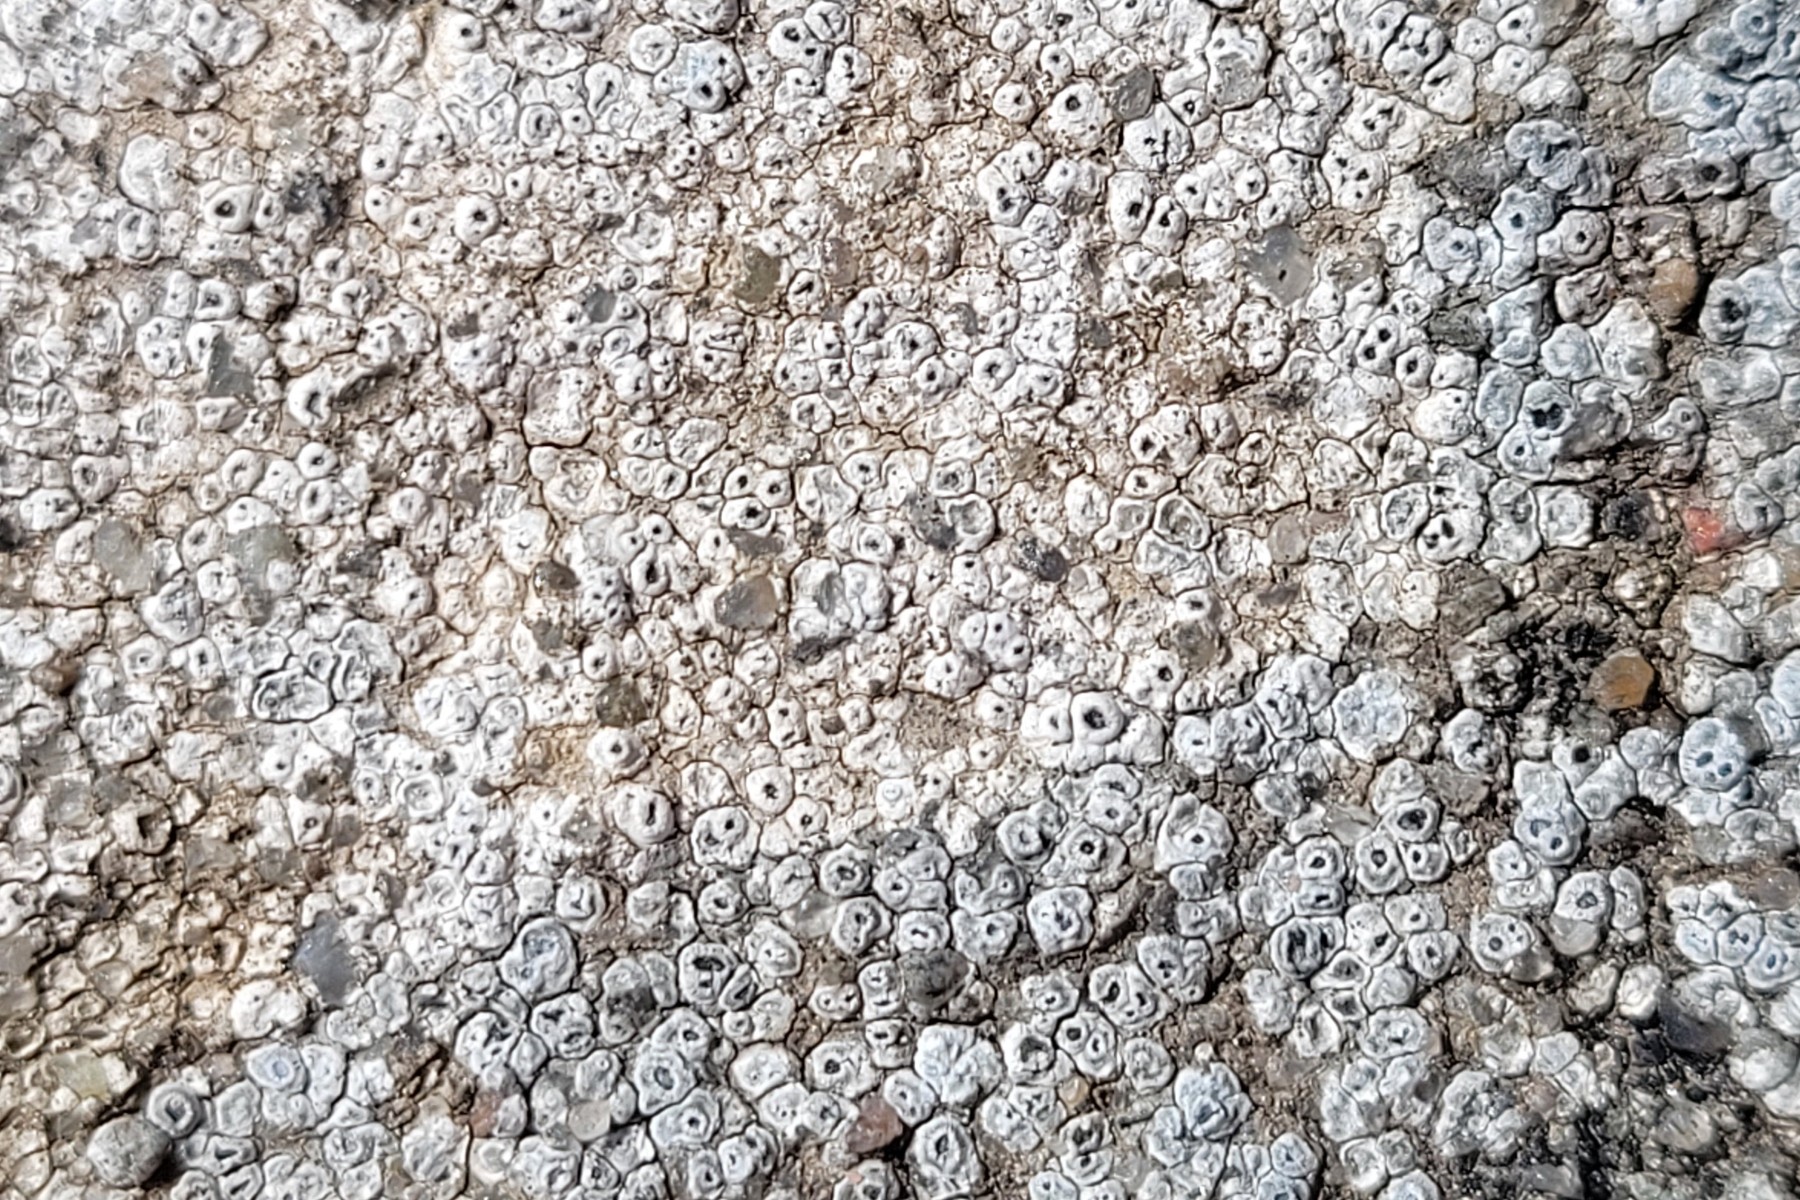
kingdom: Fungi
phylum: Ascomycota
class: Lecanoromycetes
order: Pertusariales
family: Megasporaceae
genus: Circinaria
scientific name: Circinaria contorta
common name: indviklet hulskivelav
